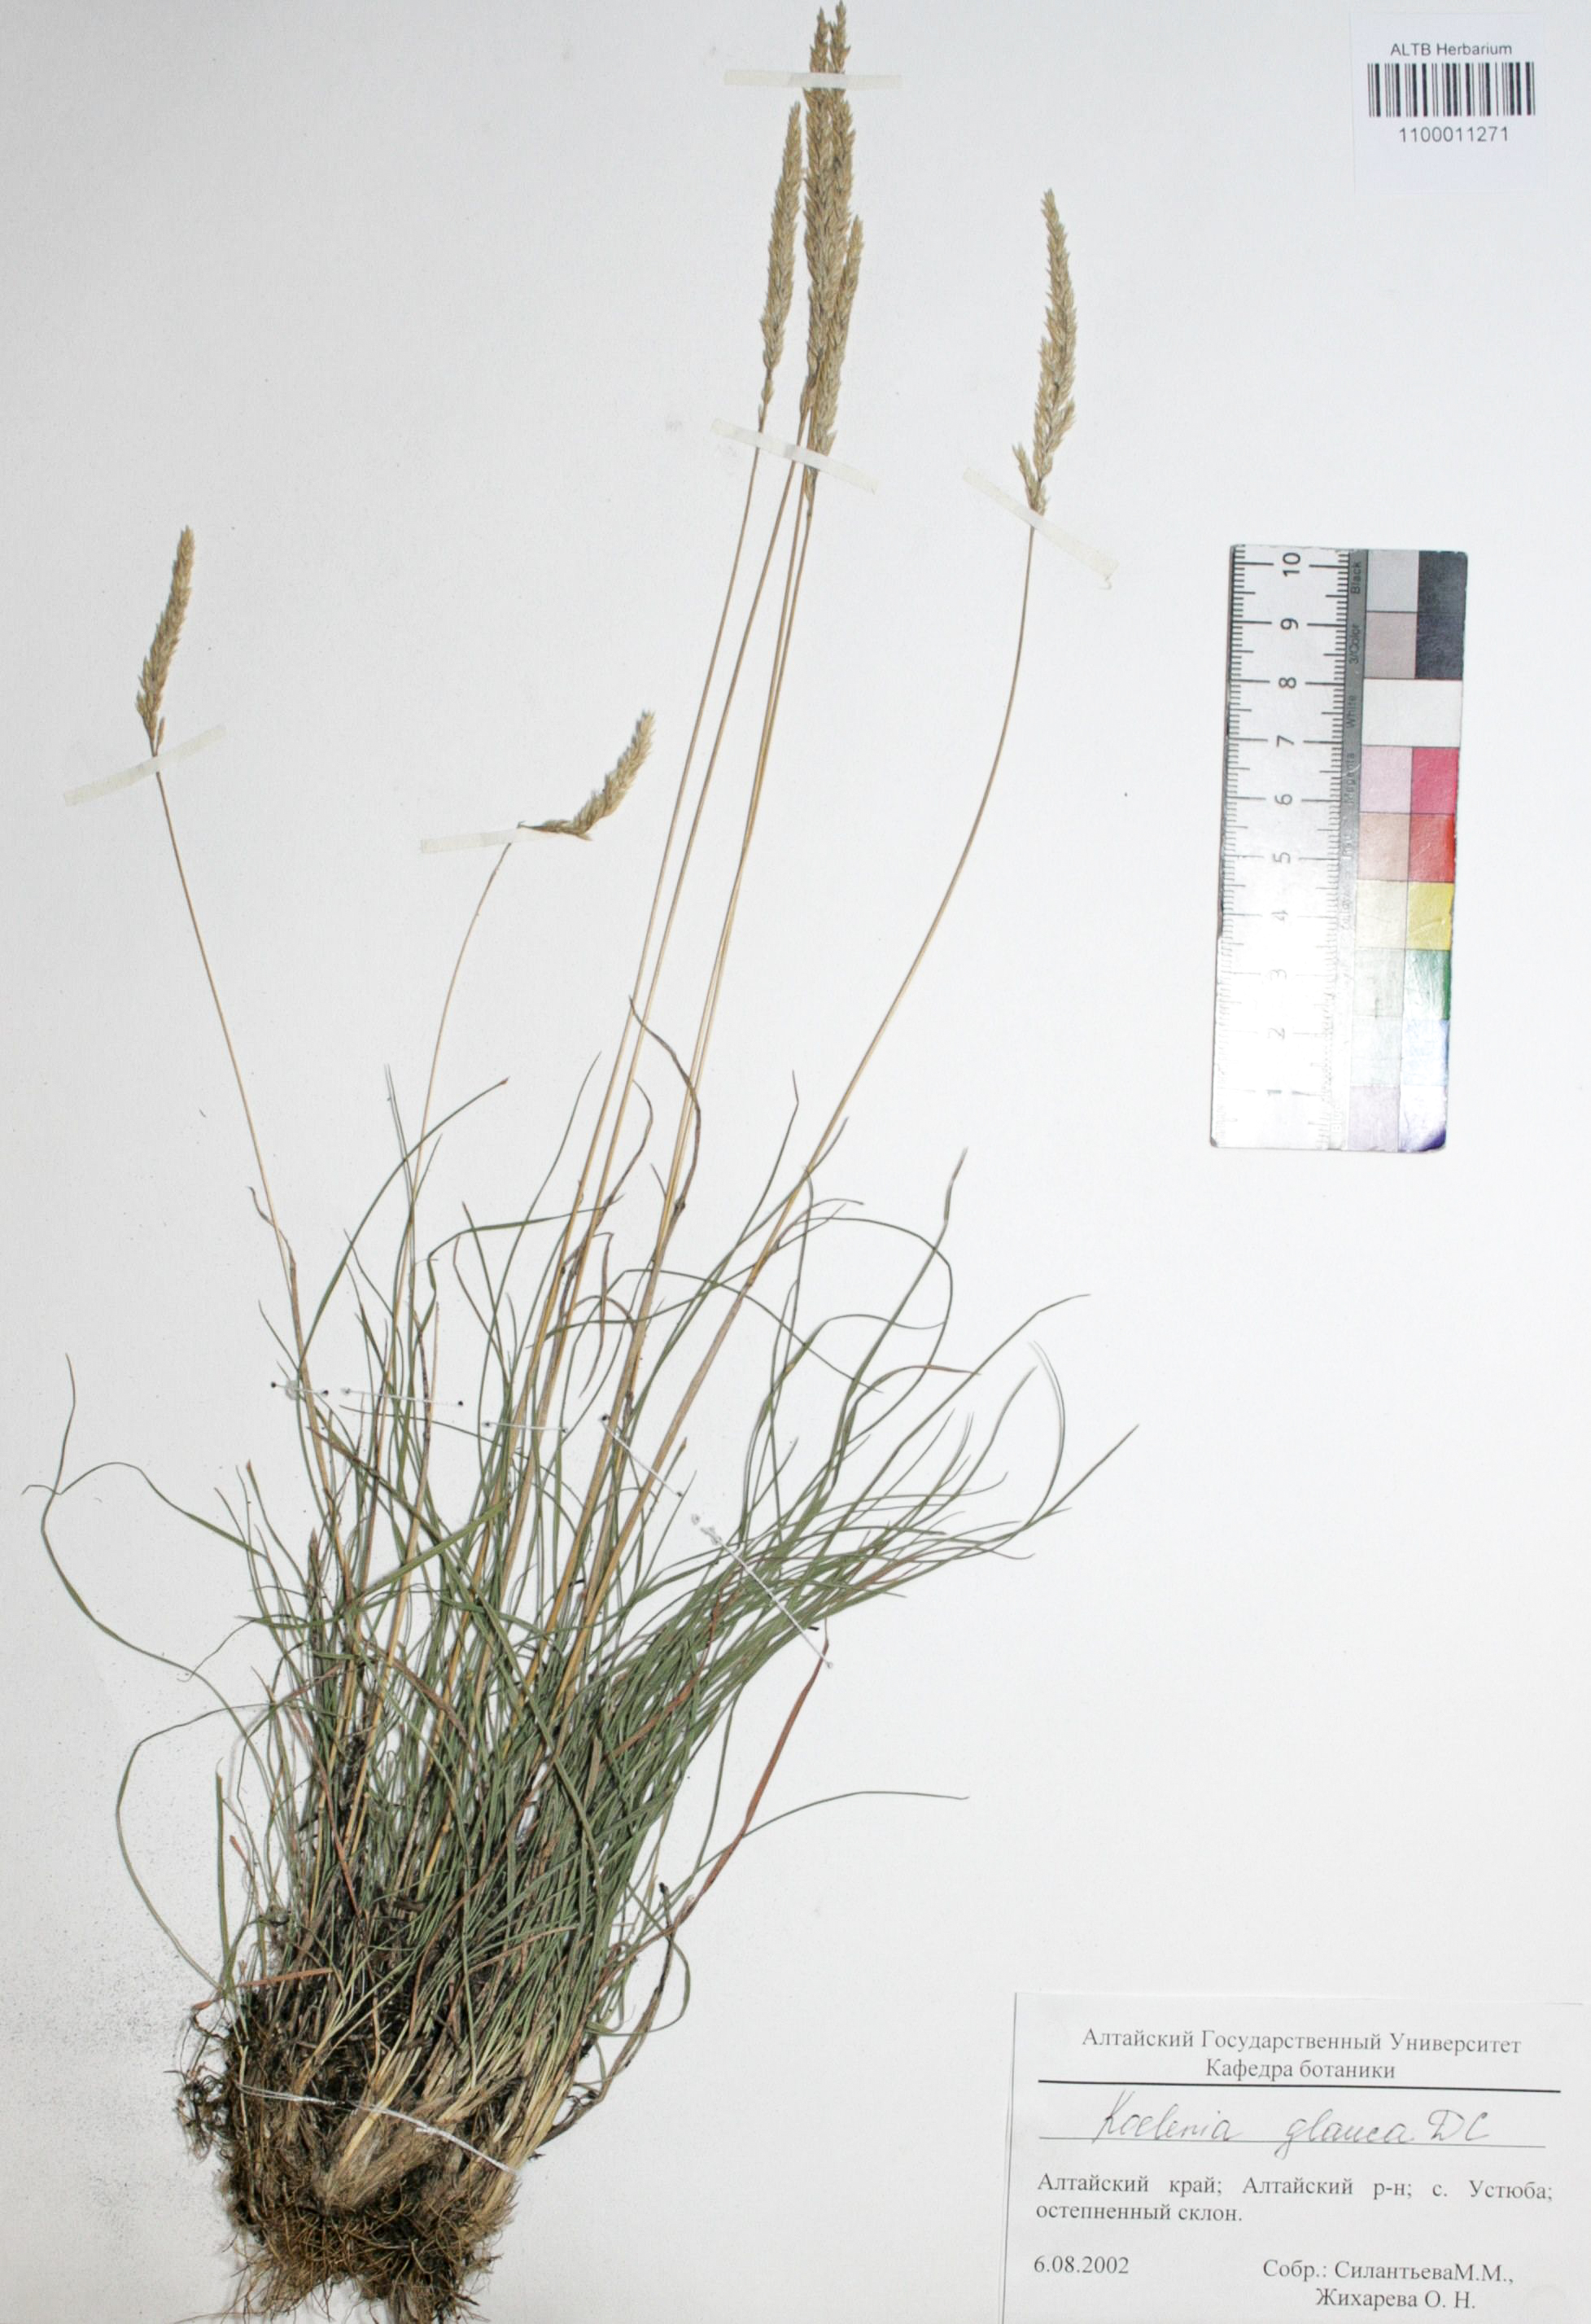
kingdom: Plantae
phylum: Tracheophyta
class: Liliopsida
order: Poales
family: Poaceae
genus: Koeleria
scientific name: Koeleria glauca
